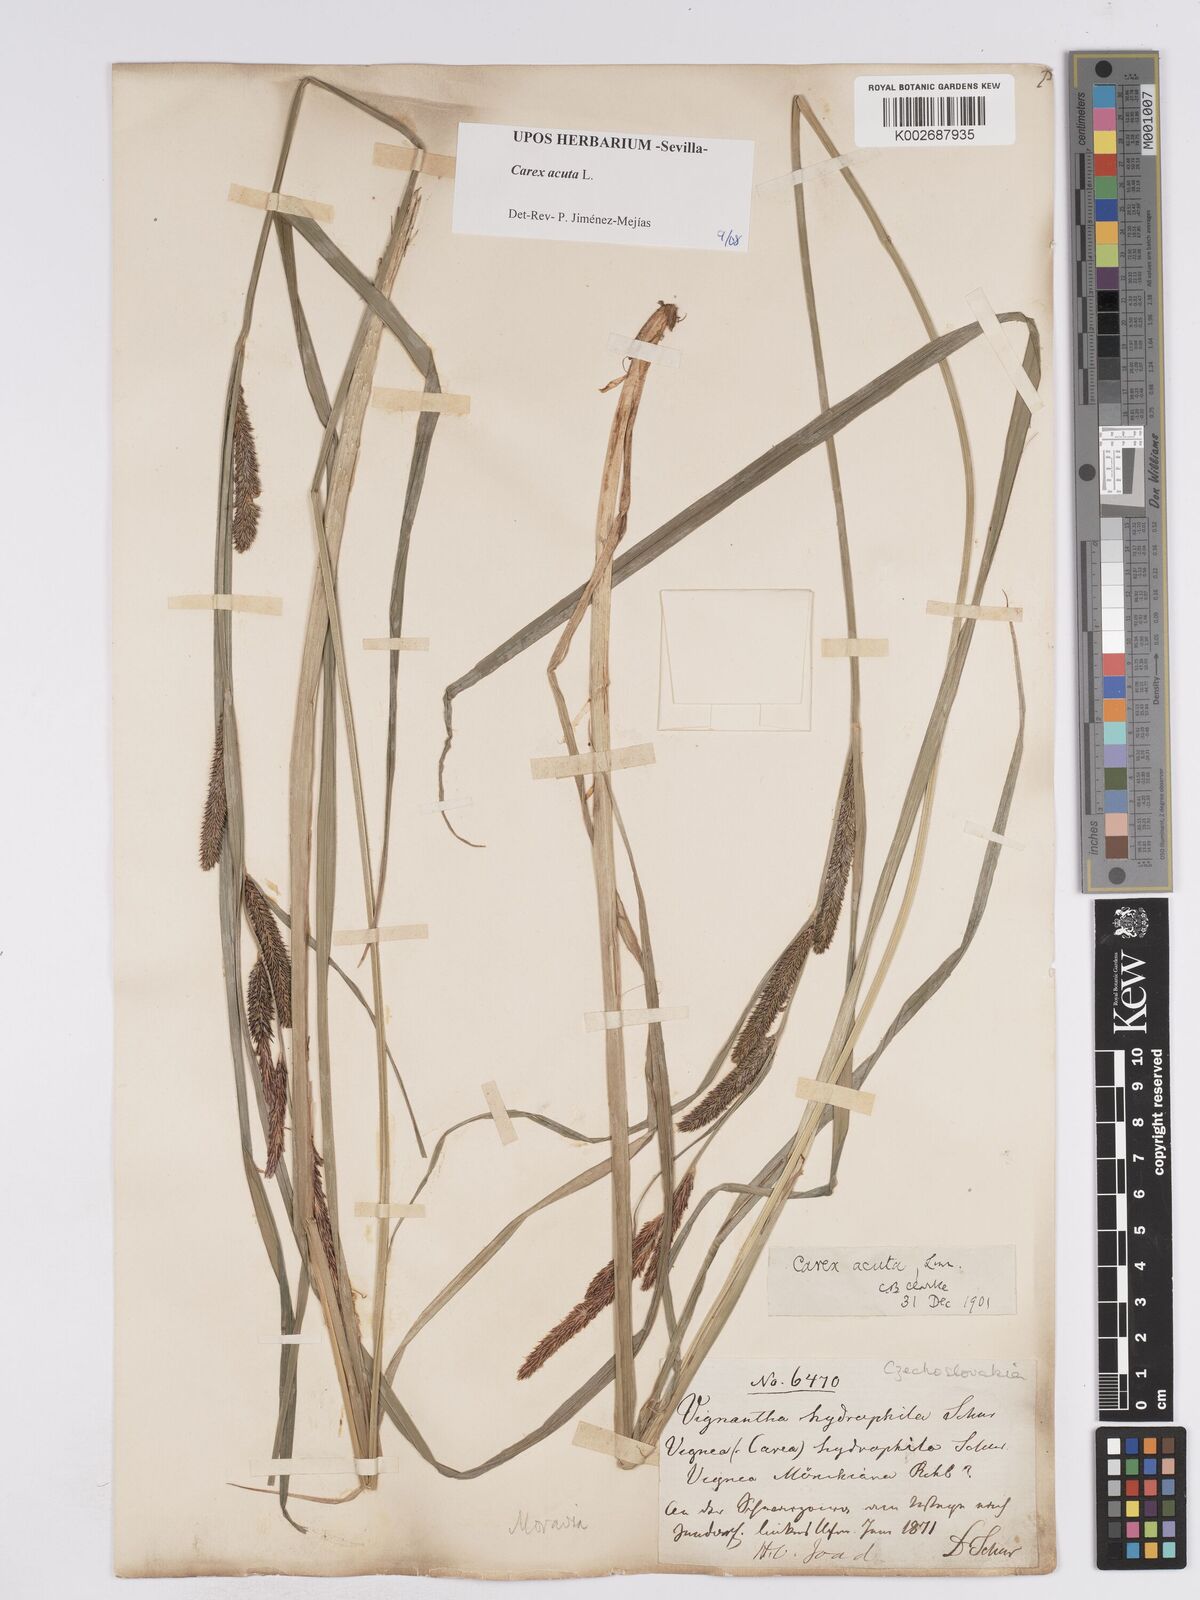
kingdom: Plantae
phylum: Tracheophyta
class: Liliopsida
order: Poales
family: Cyperaceae
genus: Carex
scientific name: Carex acuta
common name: Slender tufted-sedge
